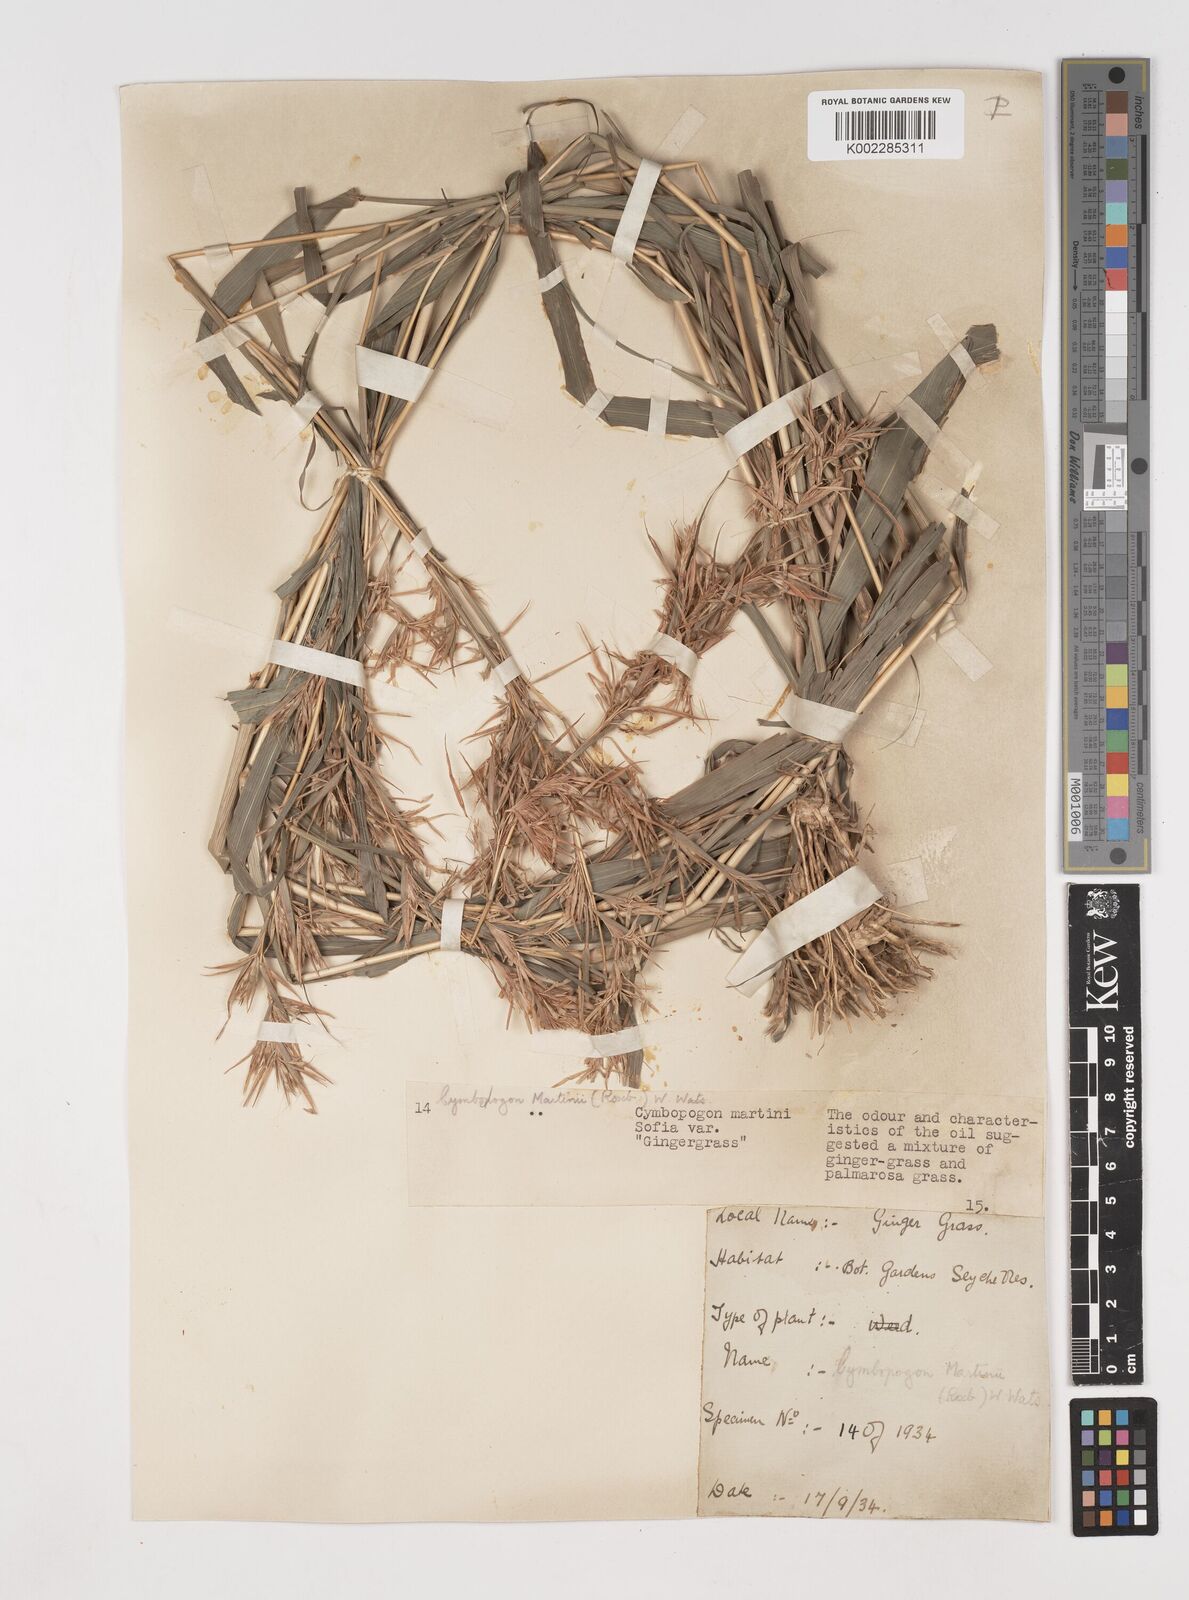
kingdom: Plantae
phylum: Tracheophyta
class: Liliopsida
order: Poales
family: Poaceae
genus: Cymbopogon
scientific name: Cymbopogon martini
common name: Ginger grass
